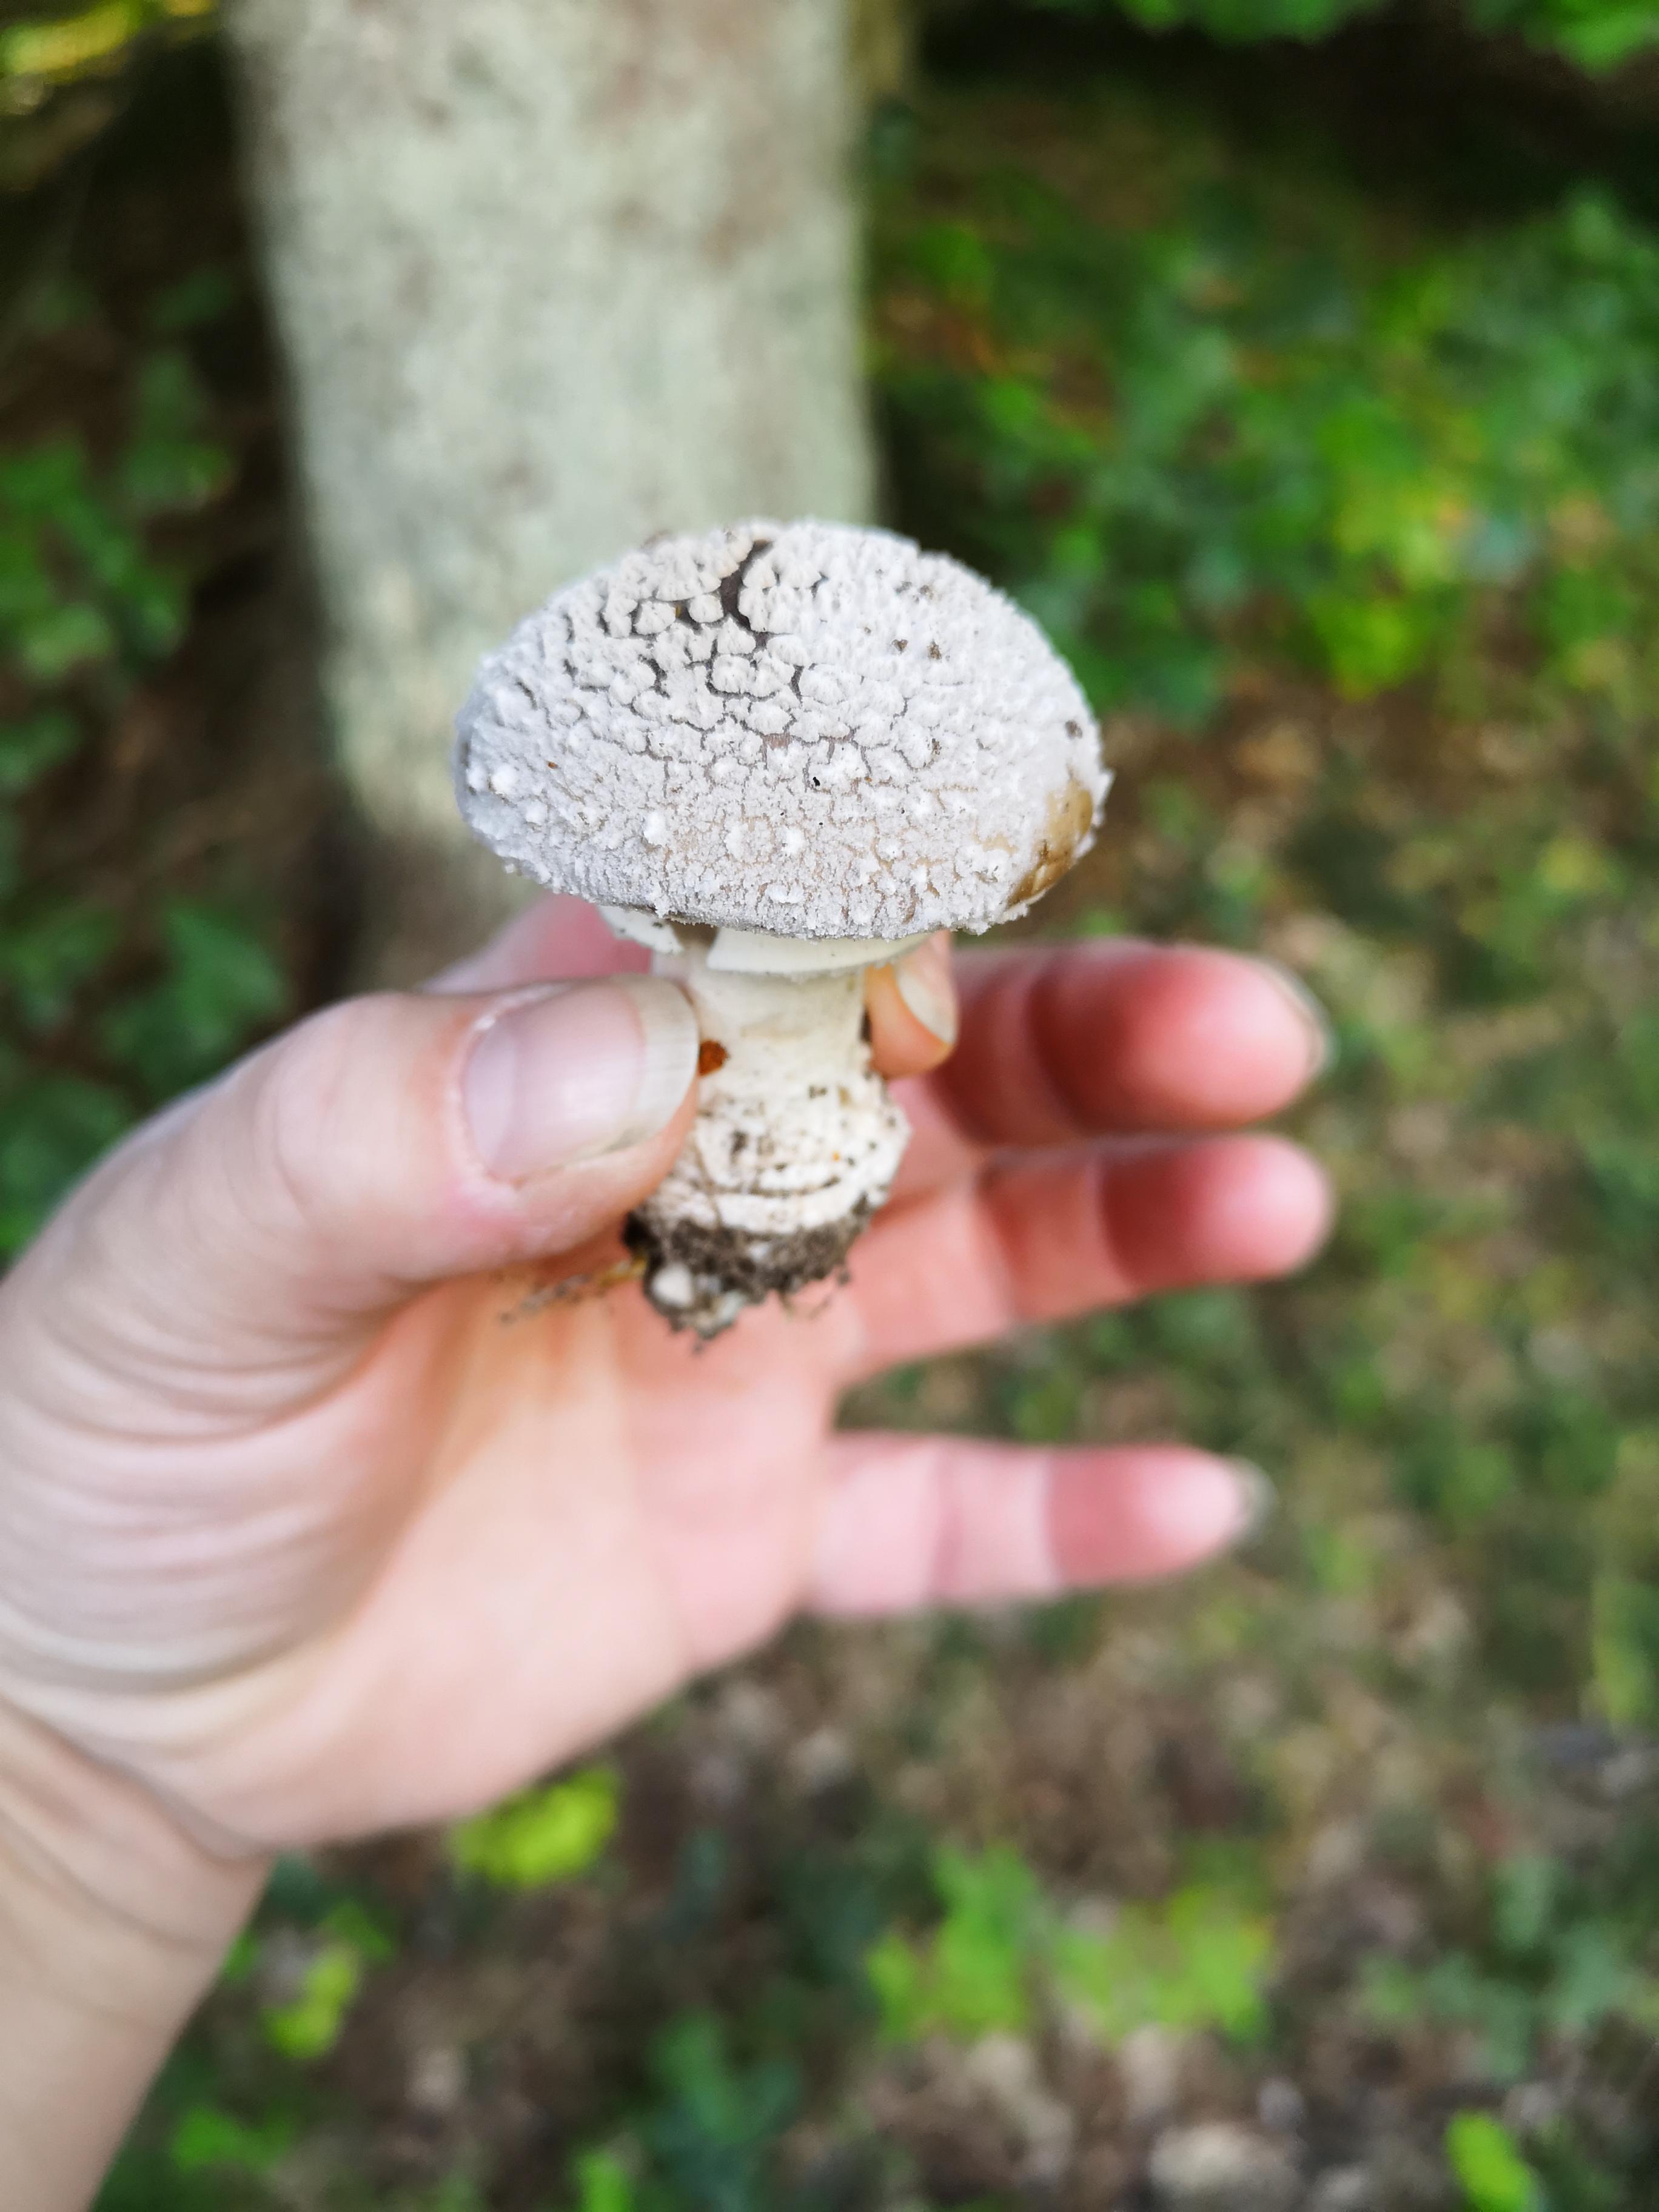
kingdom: Fungi
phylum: Basidiomycota
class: Agaricomycetes
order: Agaricales
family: Amanitaceae
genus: Amanita
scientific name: Amanita
